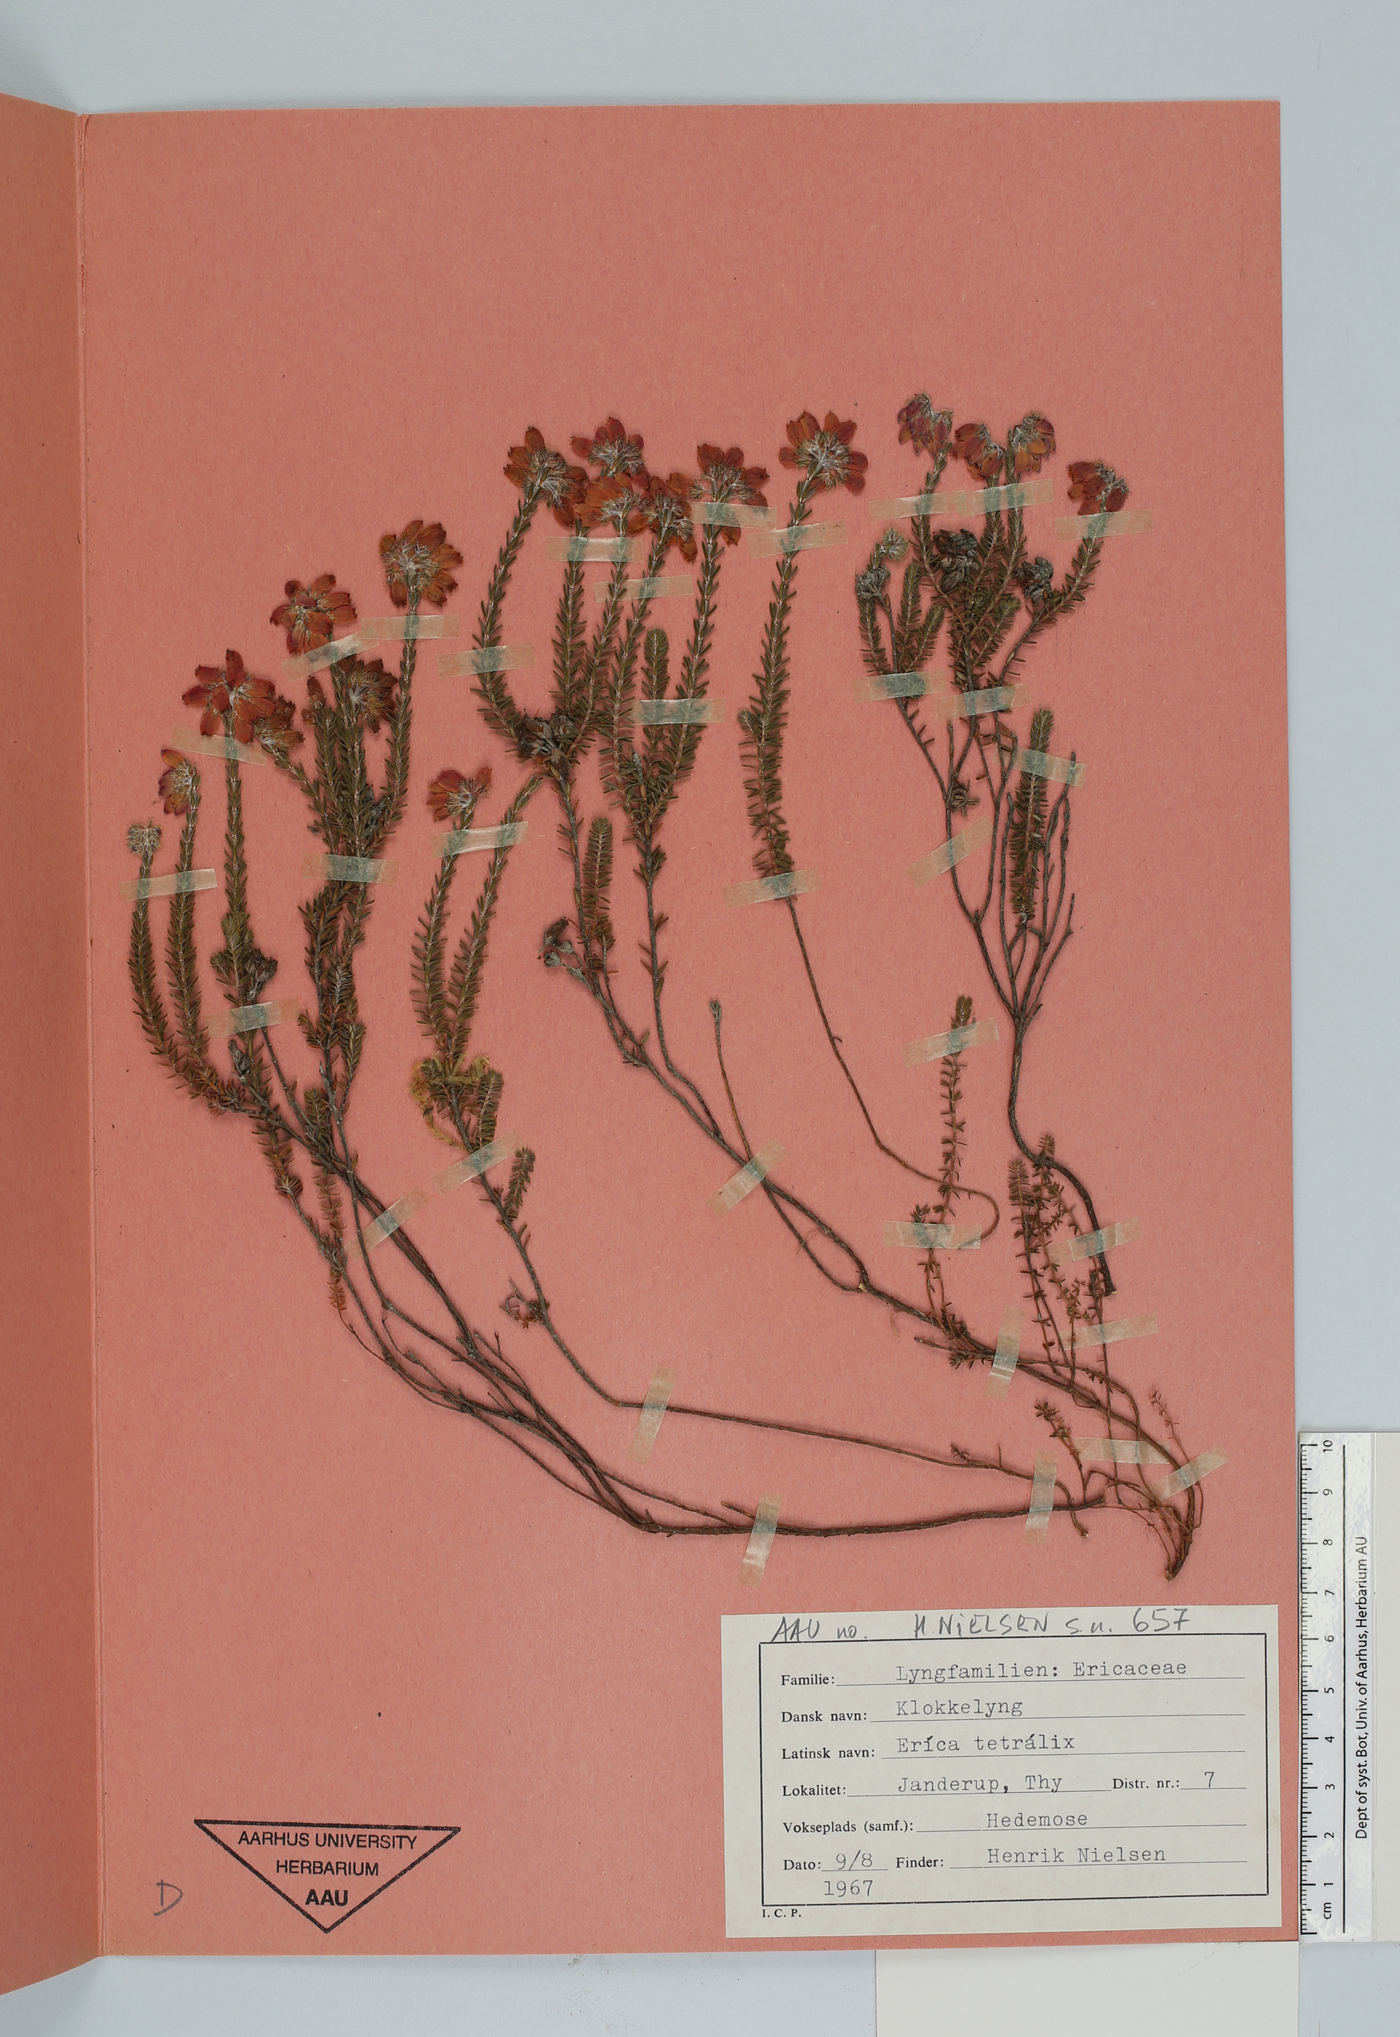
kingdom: Plantae
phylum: Tracheophyta
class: Magnoliopsida
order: Ericales
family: Ericaceae
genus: Erica
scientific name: Erica tetralix
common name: Cross-leaved heath
